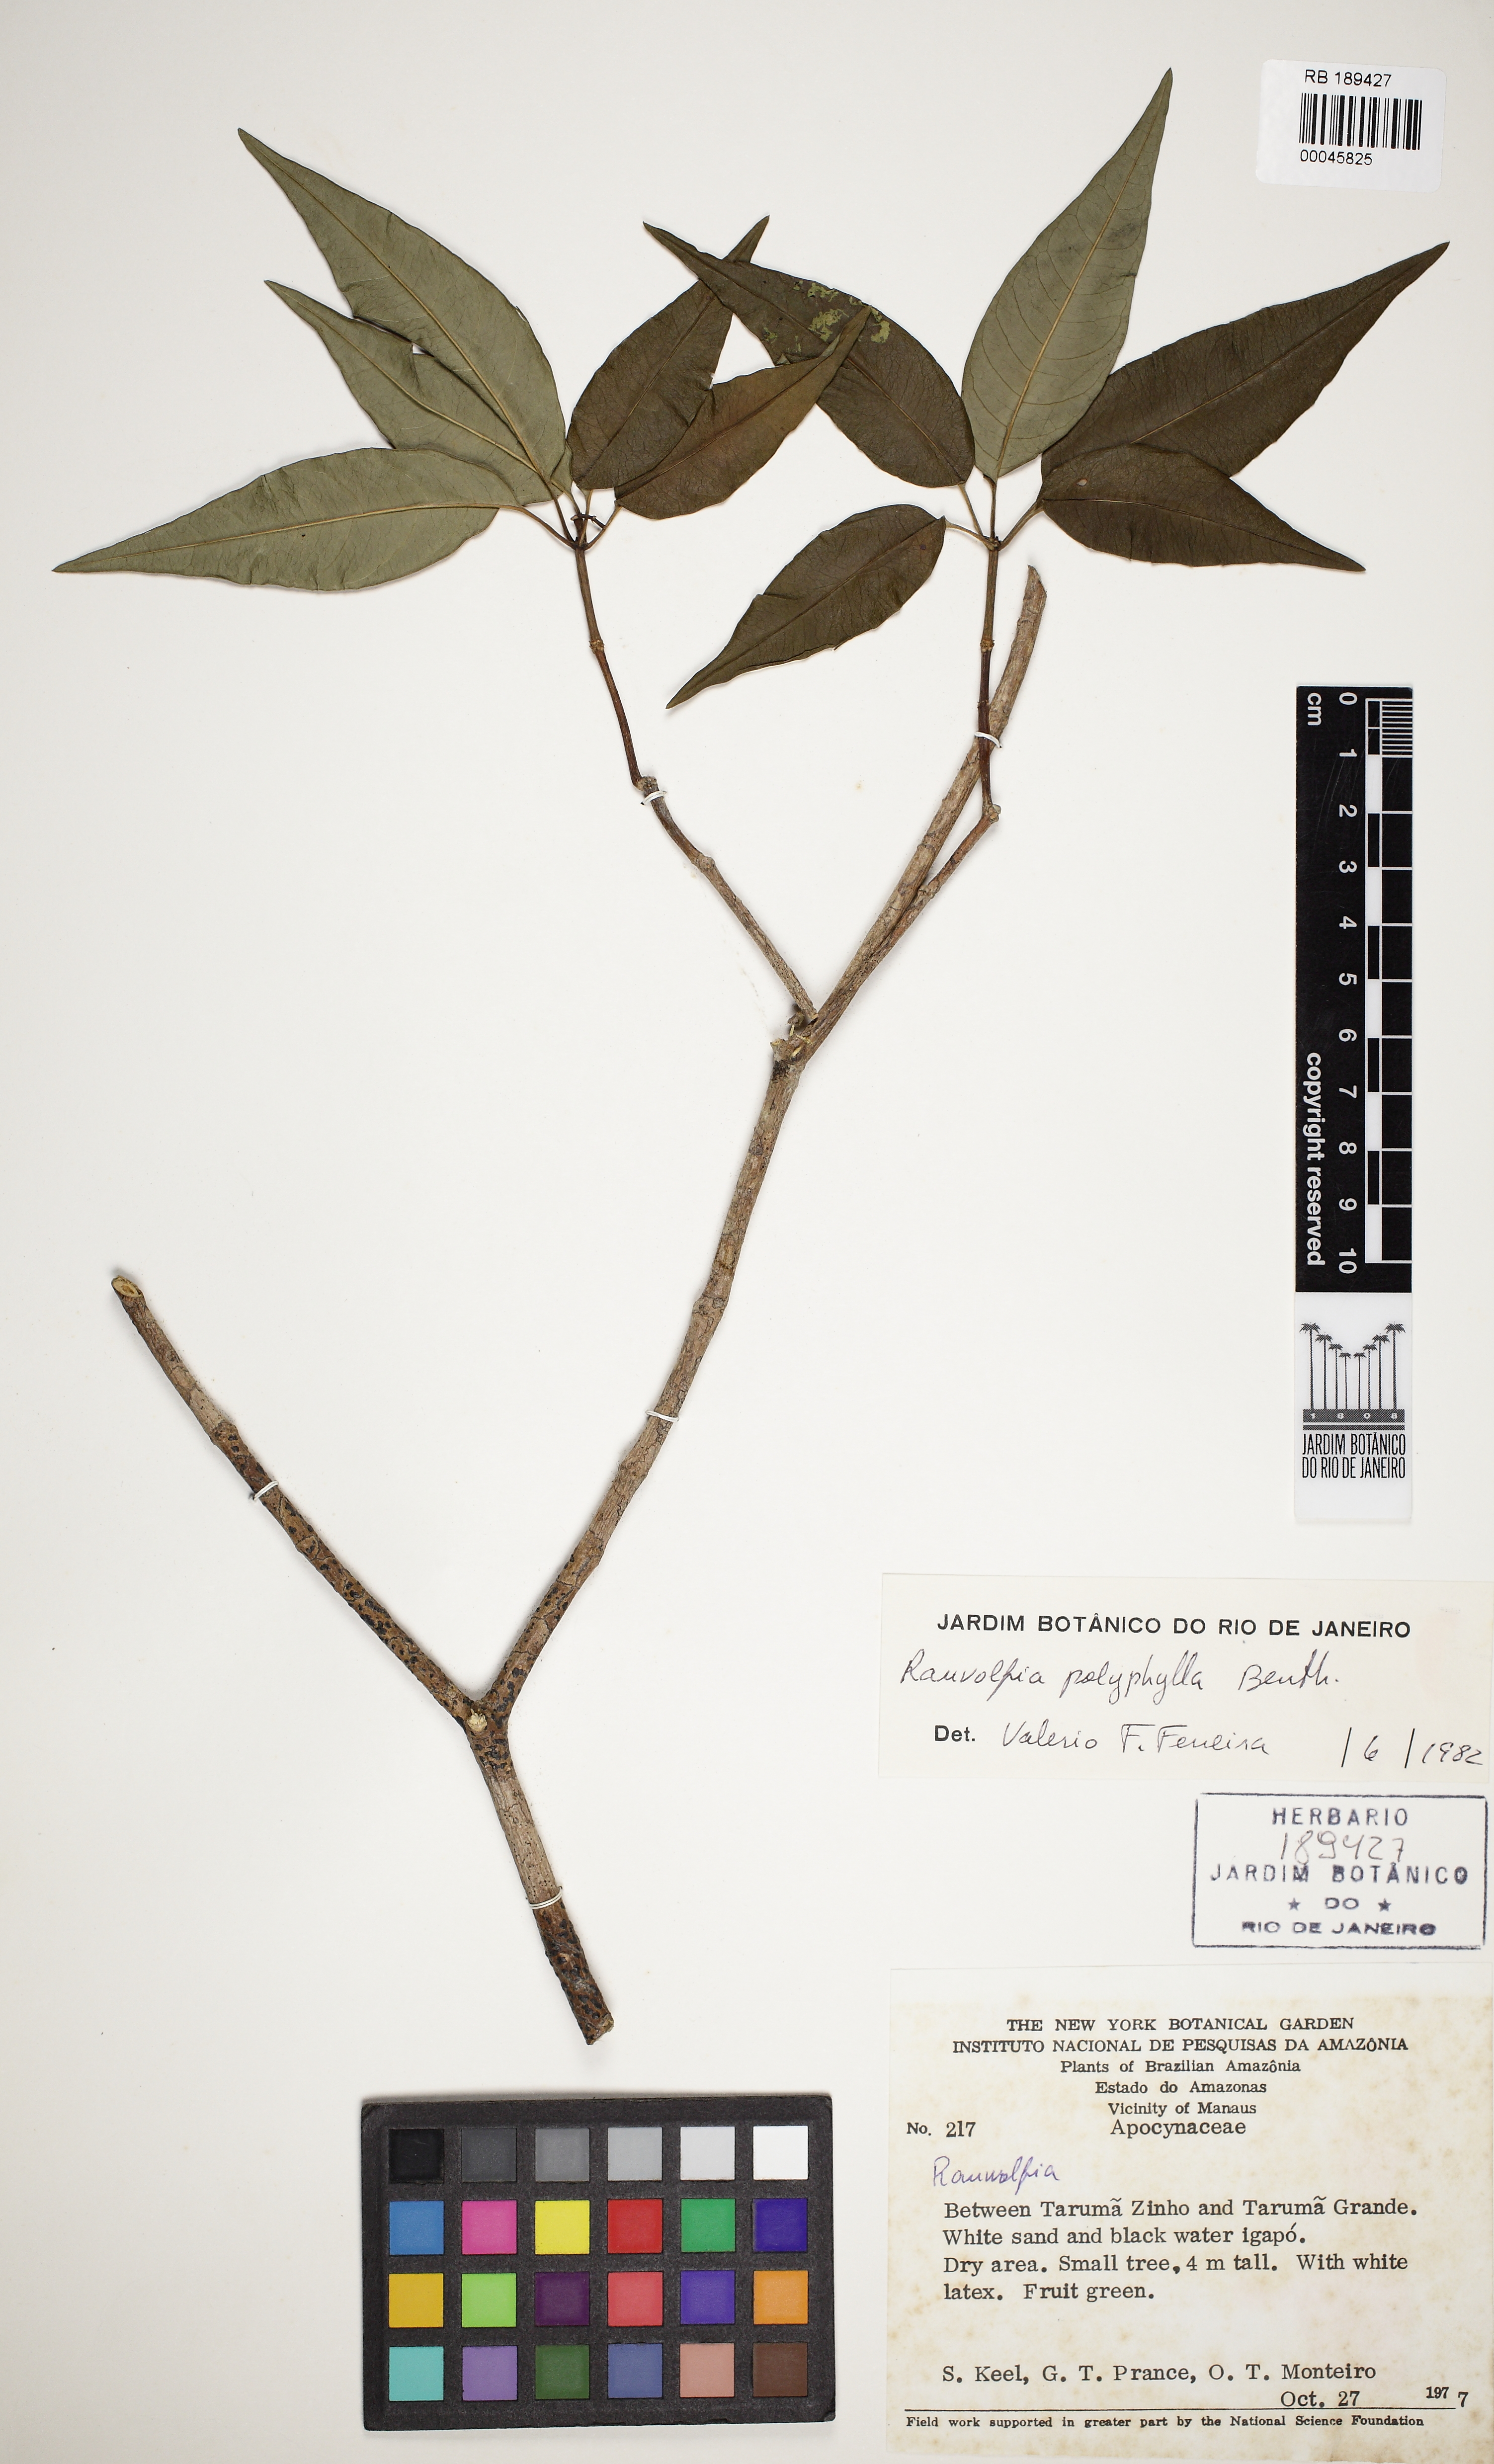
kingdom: Plantae
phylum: Tracheophyta
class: Magnoliopsida
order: Gentianales
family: Apocynaceae
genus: Rauvolfia
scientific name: Rauvolfia polyphylla
